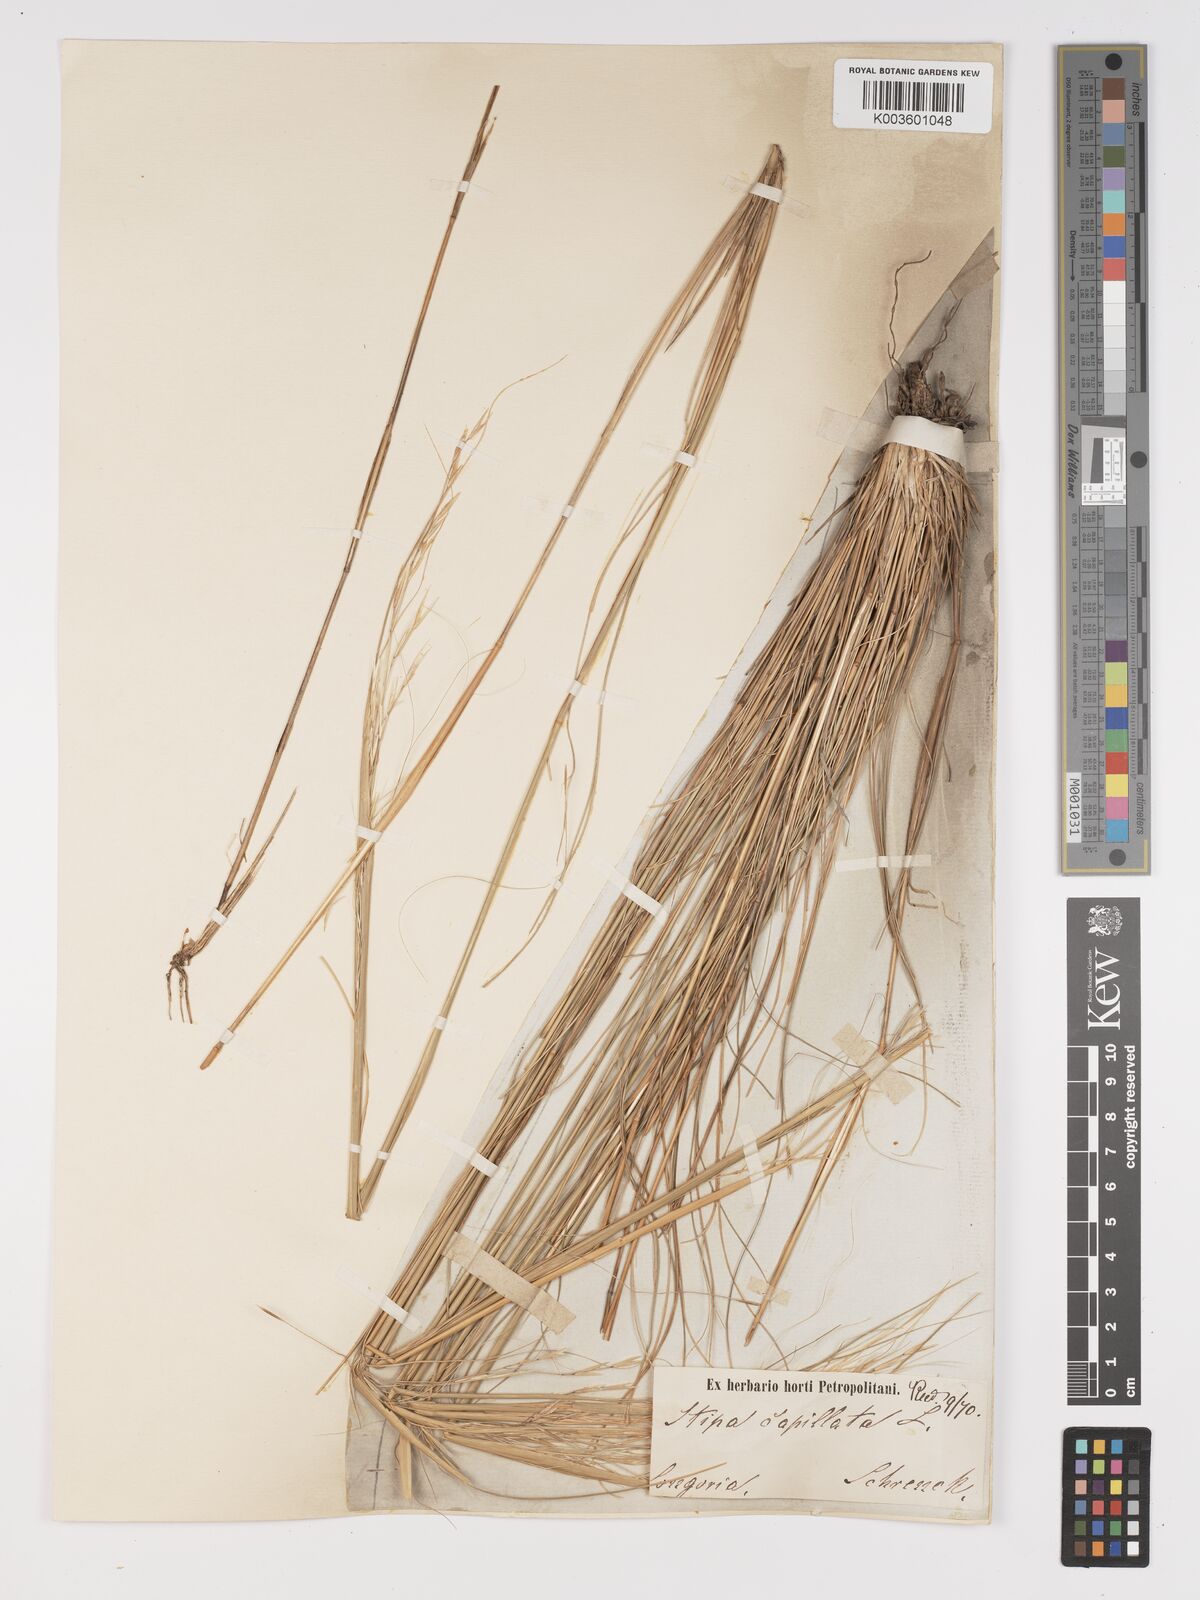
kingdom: Plantae
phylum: Tracheophyta
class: Liliopsida
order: Poales
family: Poaceae
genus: Stipa
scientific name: Stipa capillata
